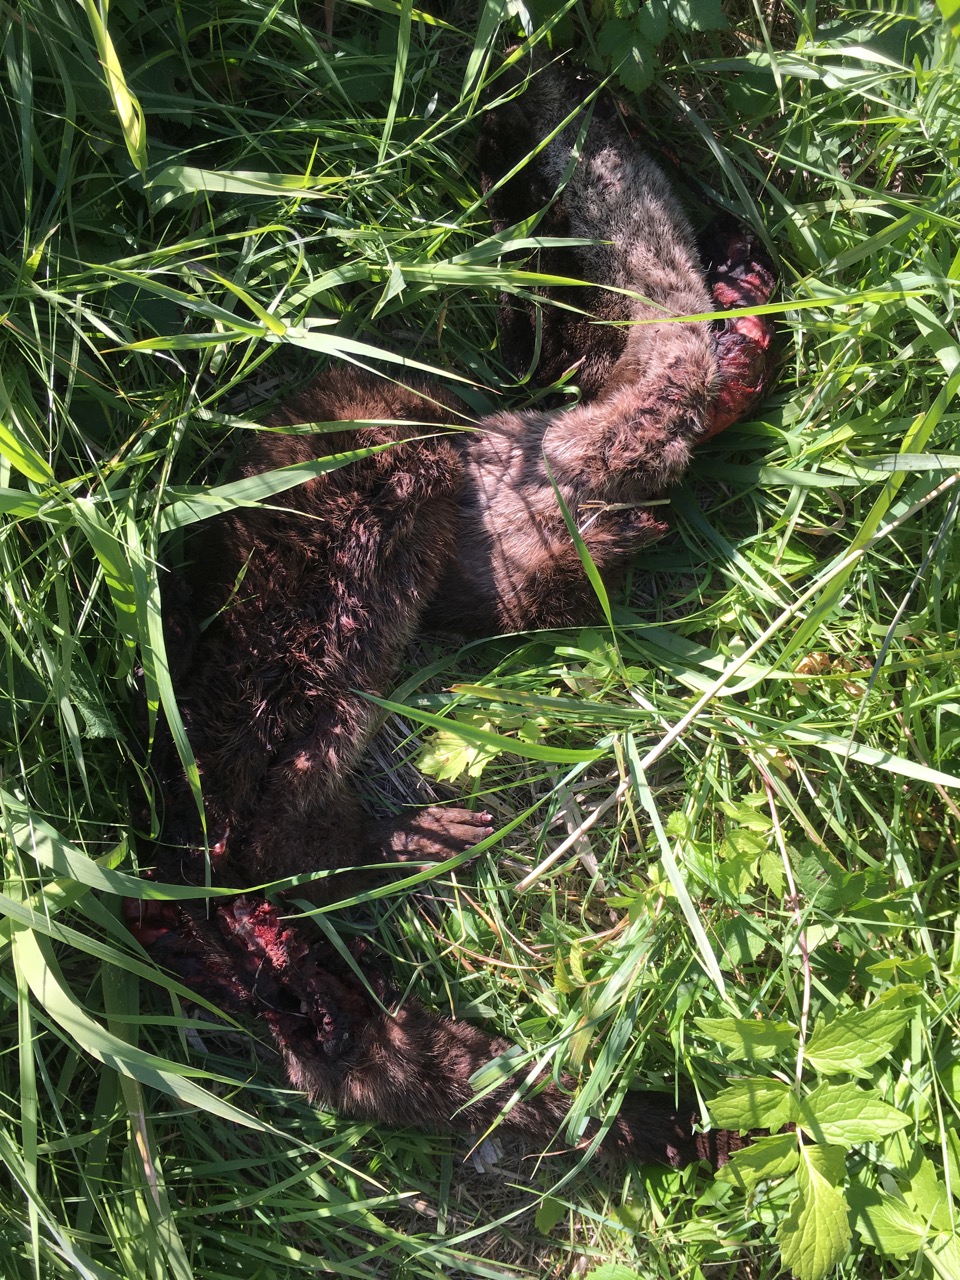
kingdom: Animalia
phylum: Chordata
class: Mammalia
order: Carnivora
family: Mustelidae
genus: Lutra
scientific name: Lutra lutra
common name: European otter
